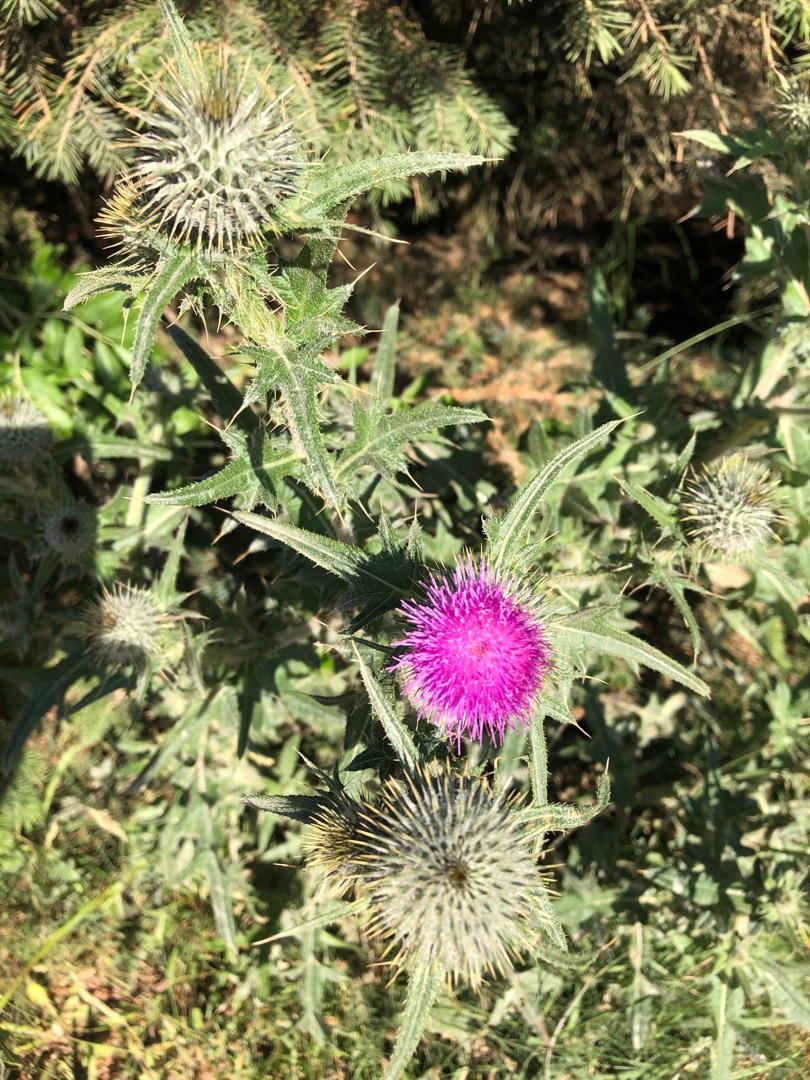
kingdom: Plantae
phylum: Tracheophyta
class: Magnoliopsida
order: Asterales
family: Asteraceae
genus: Cirsium
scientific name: Cirsium vulgare
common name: Horse-tidsel
